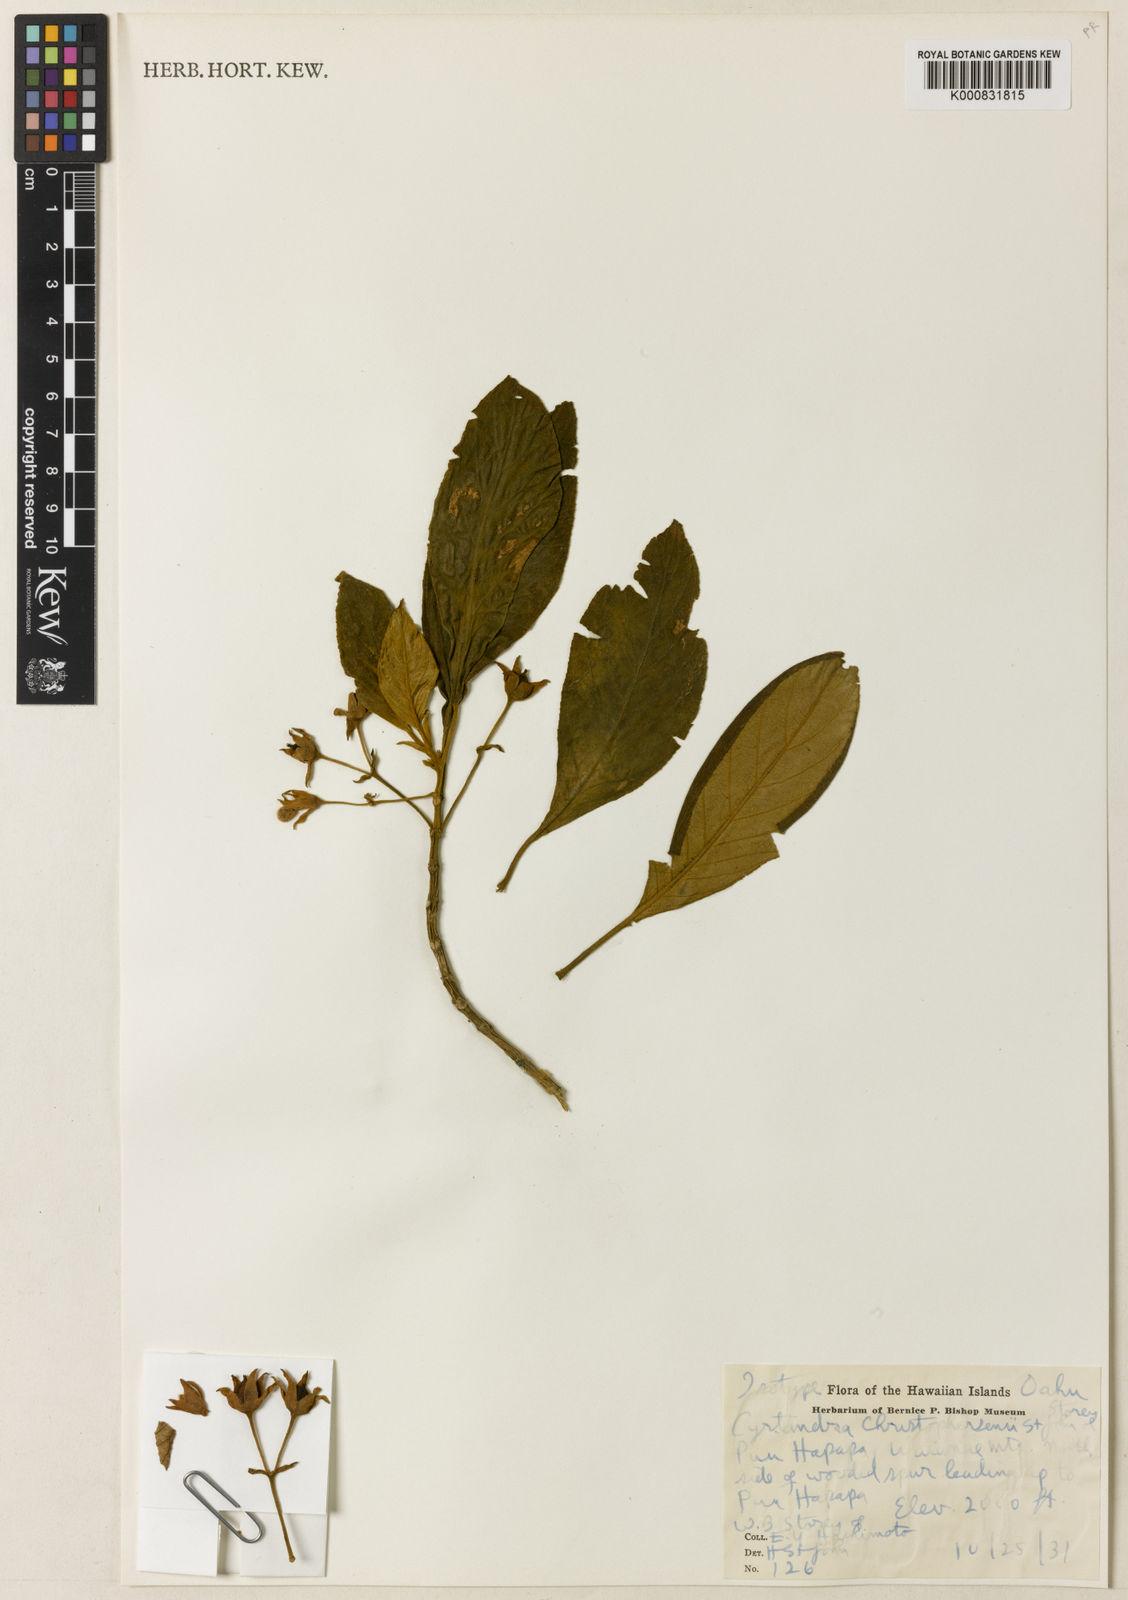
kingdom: Plantae
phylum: Tracheophyta
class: Magnoliopsida
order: Lamiales
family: Gesneriaceae
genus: Cyrtandra
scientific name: Cyrtandra christophersenii
